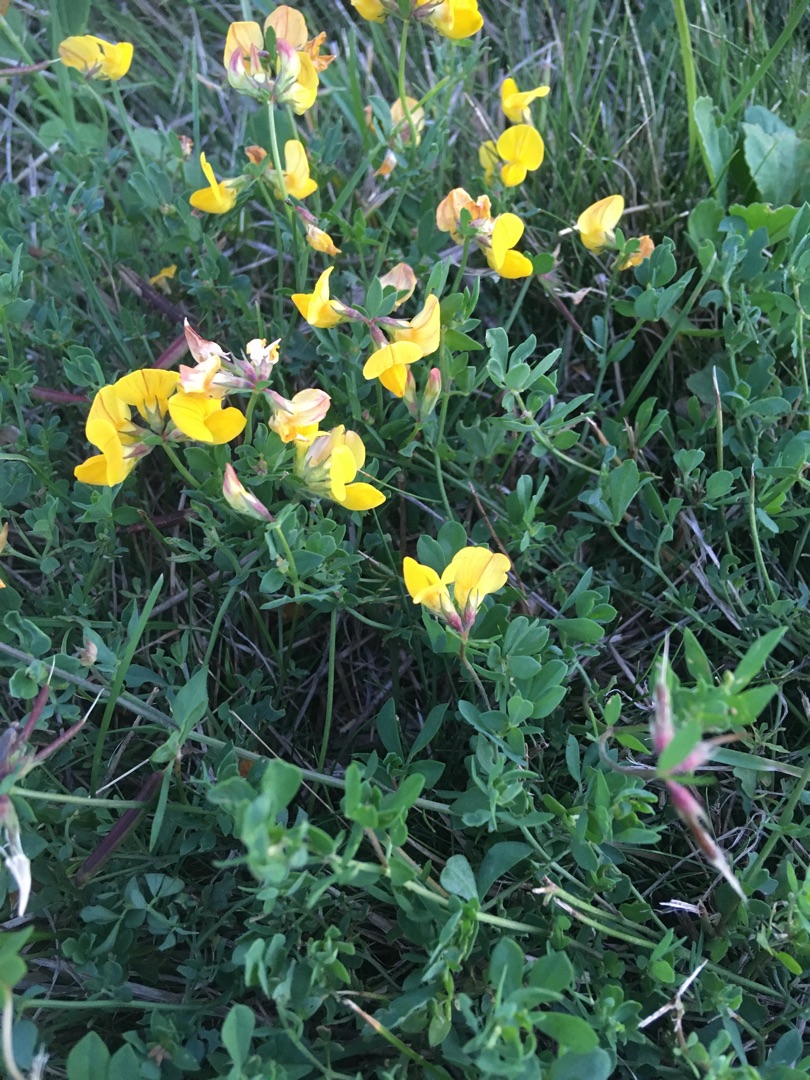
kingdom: Plantae
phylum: Tracheophyta
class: Magnoliopsida
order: Fabales
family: Fabaceae
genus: Lotus
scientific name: Lotus corniculatus
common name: Almindelig kællingetand
